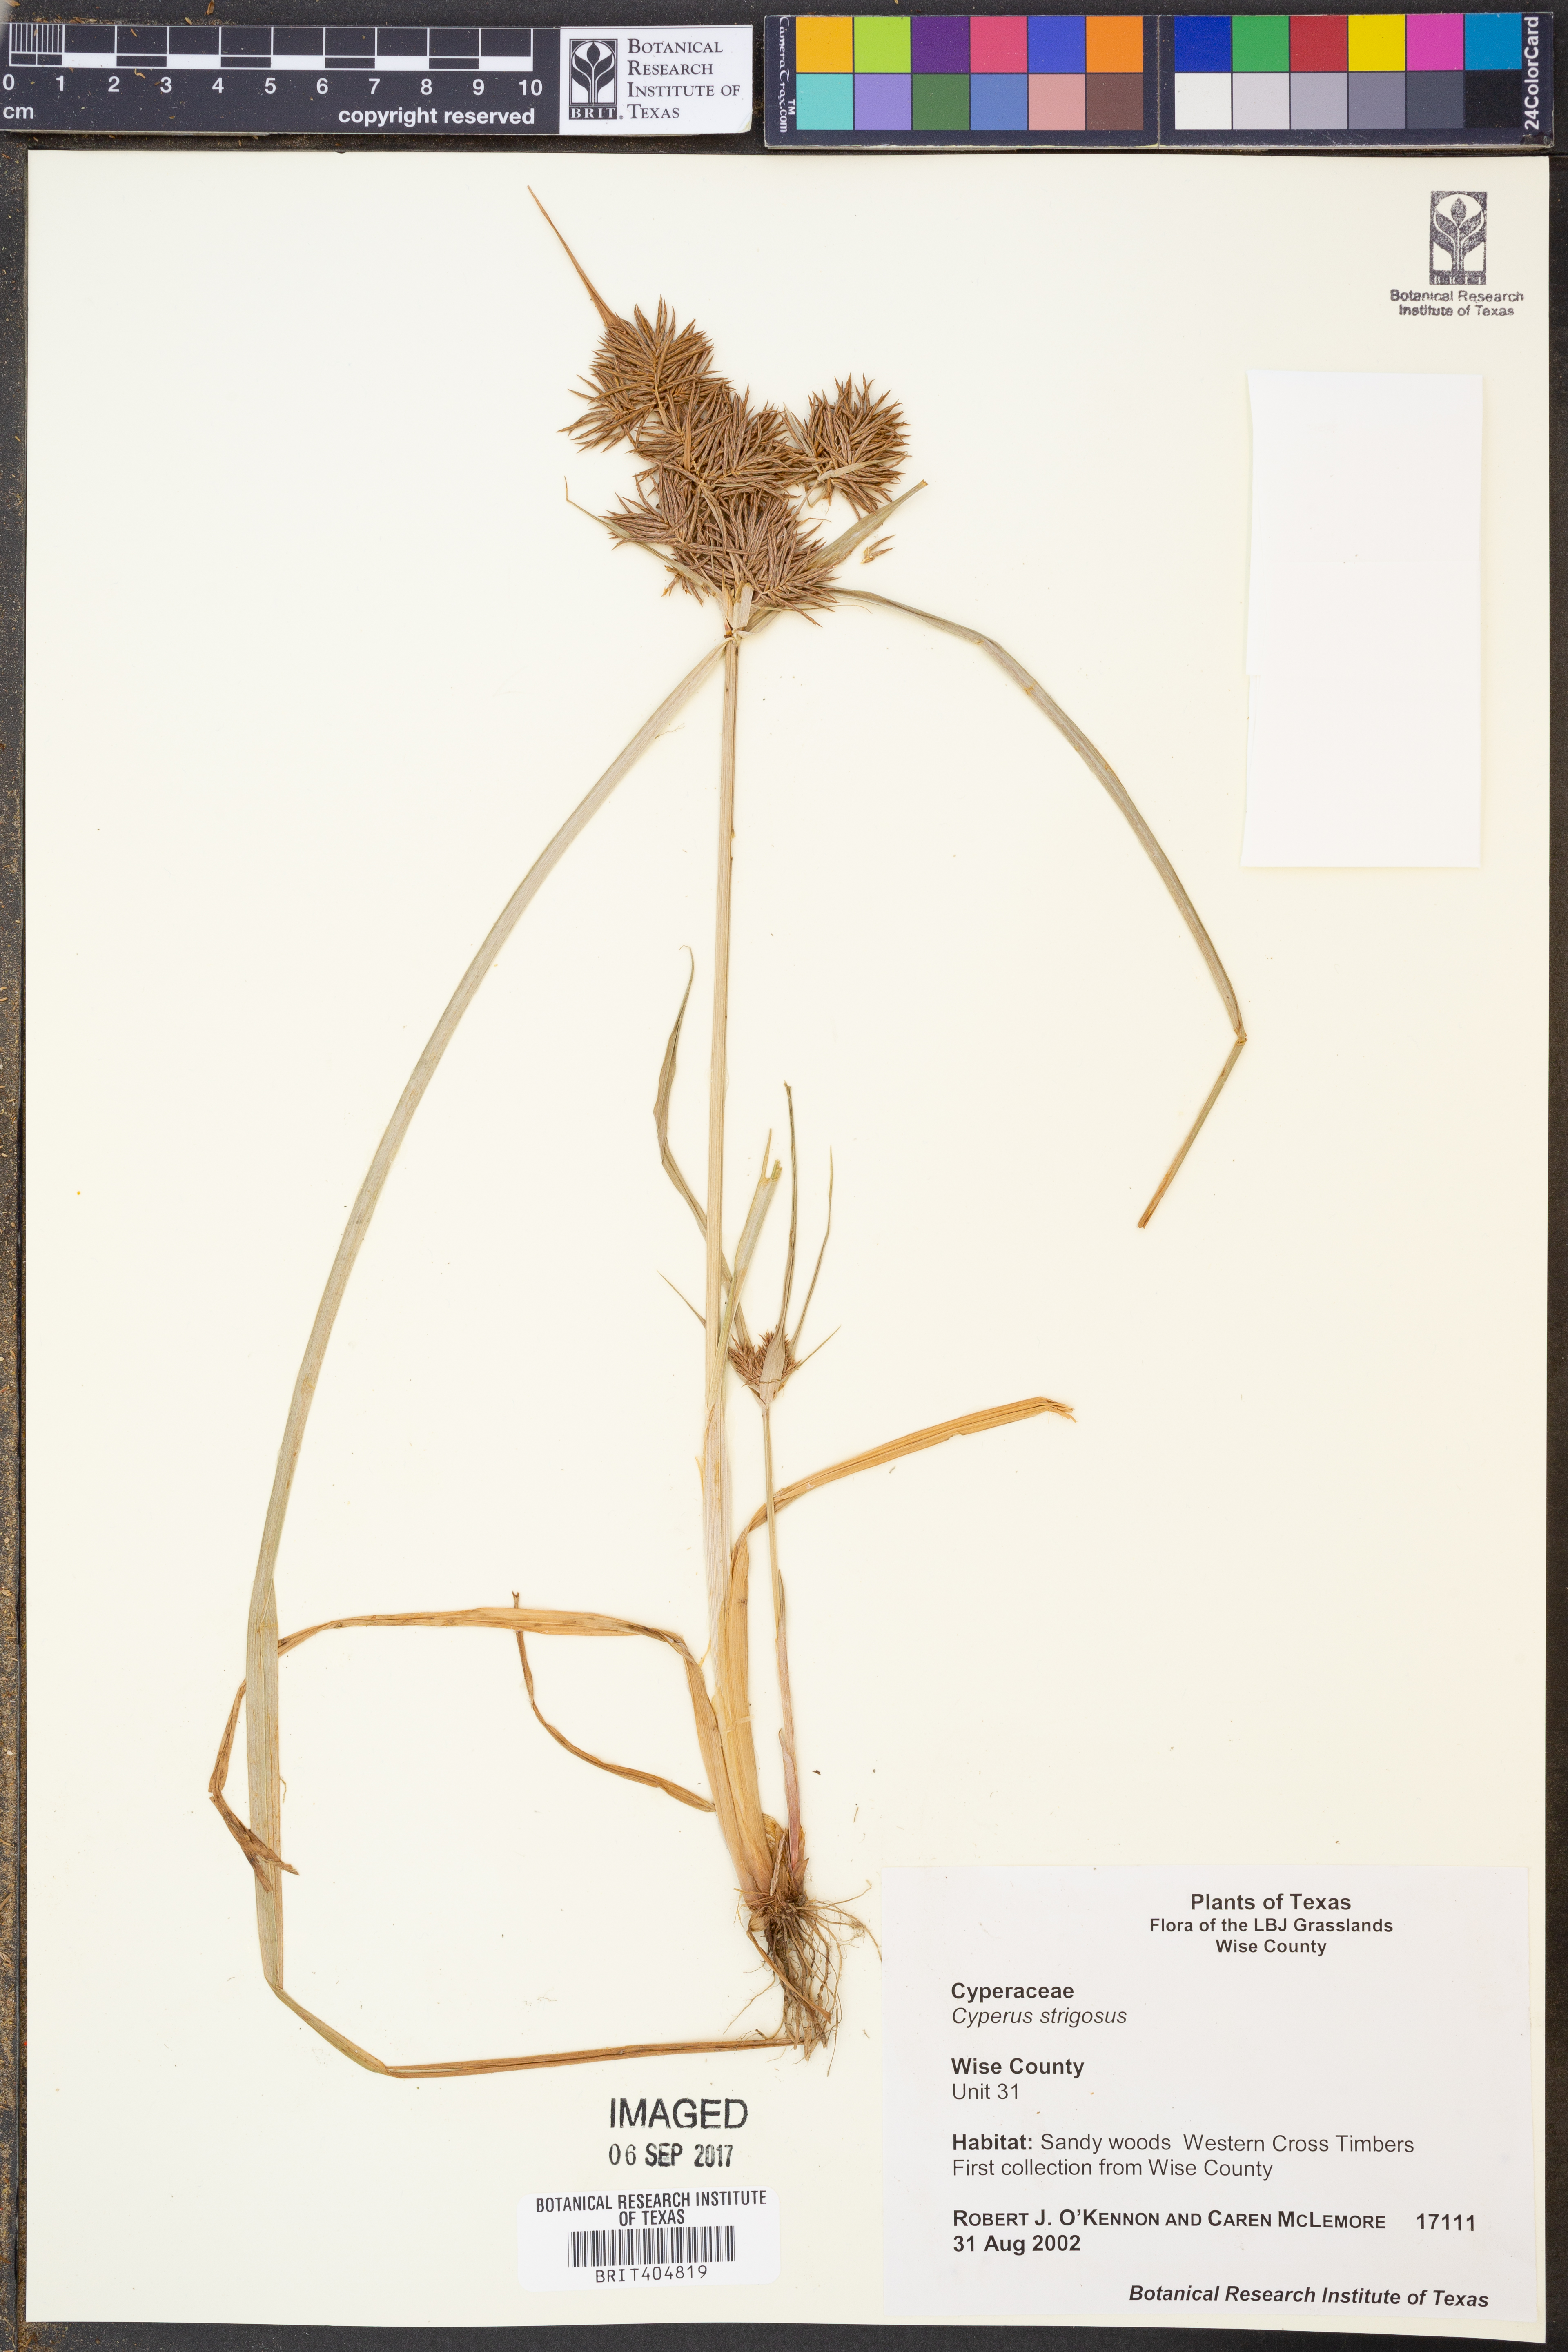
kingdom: Plantae
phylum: Tracheophyta
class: Liliopsida
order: Poales
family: Cyperaceae
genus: Cyperus
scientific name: Cyperus strigosus
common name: False nutsedge
